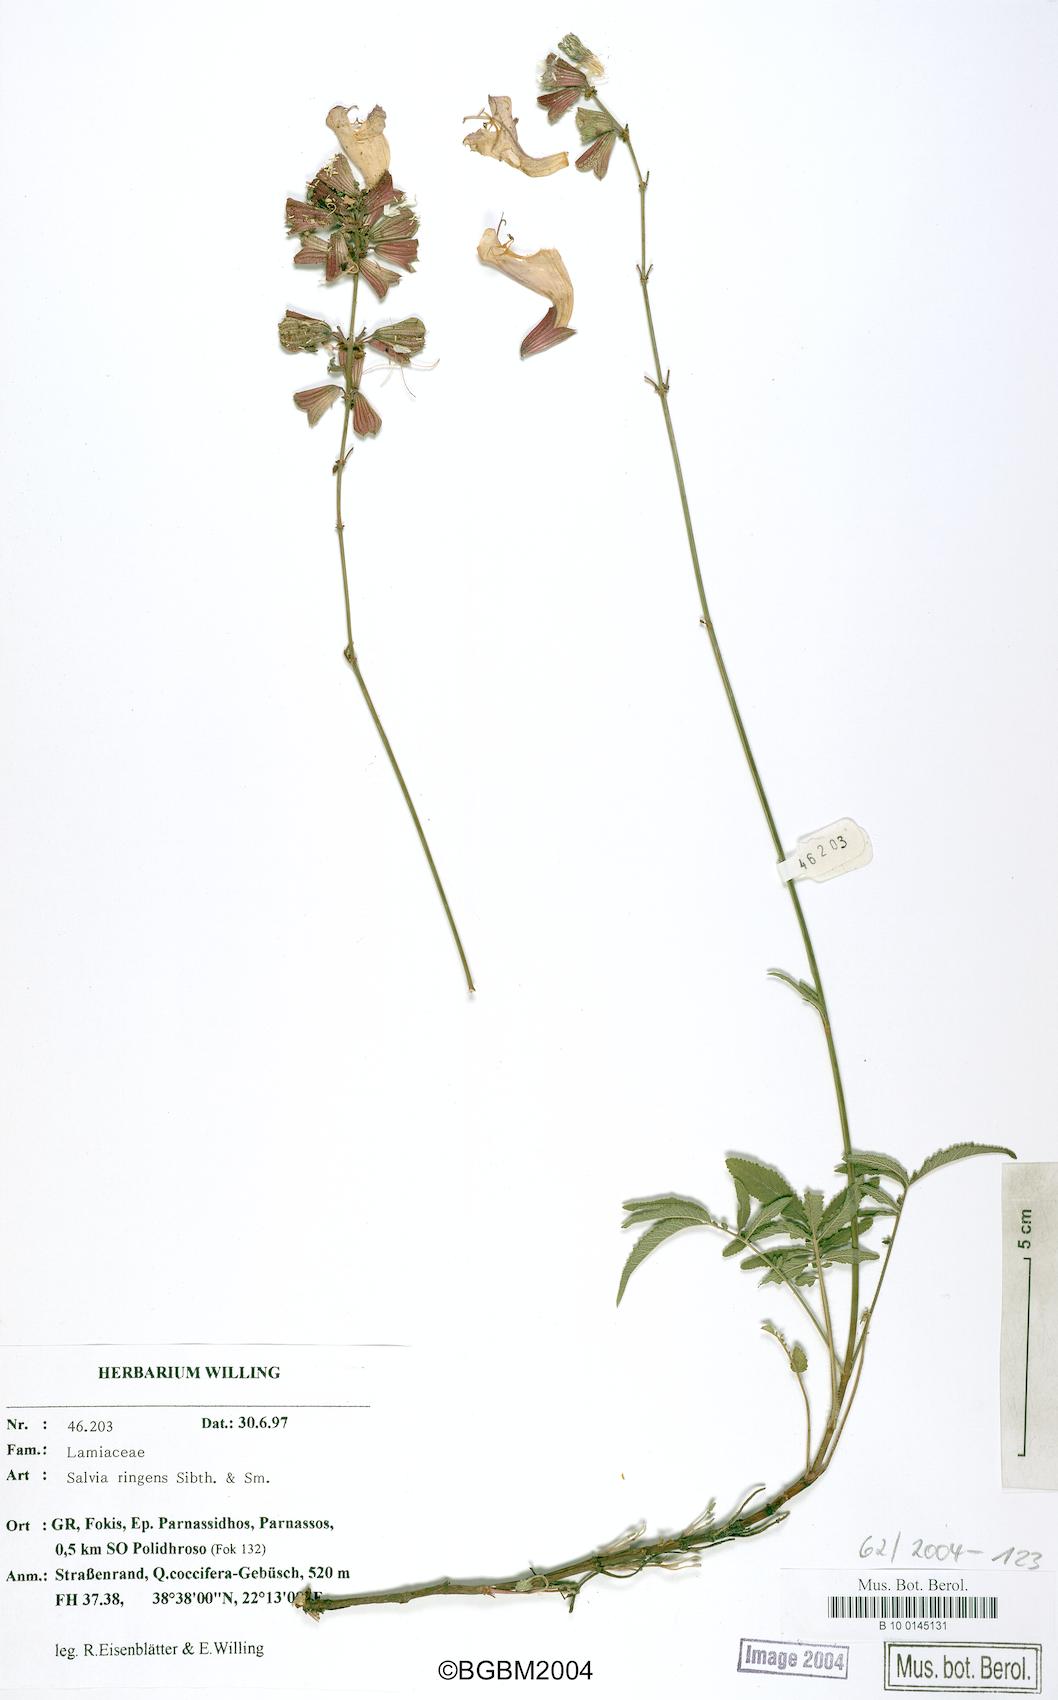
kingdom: Plantae
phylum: Tracheophyta
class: Magnoliopsida
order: Lamiales
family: Lamiaceae
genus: Salvia
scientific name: Salvia ringens
